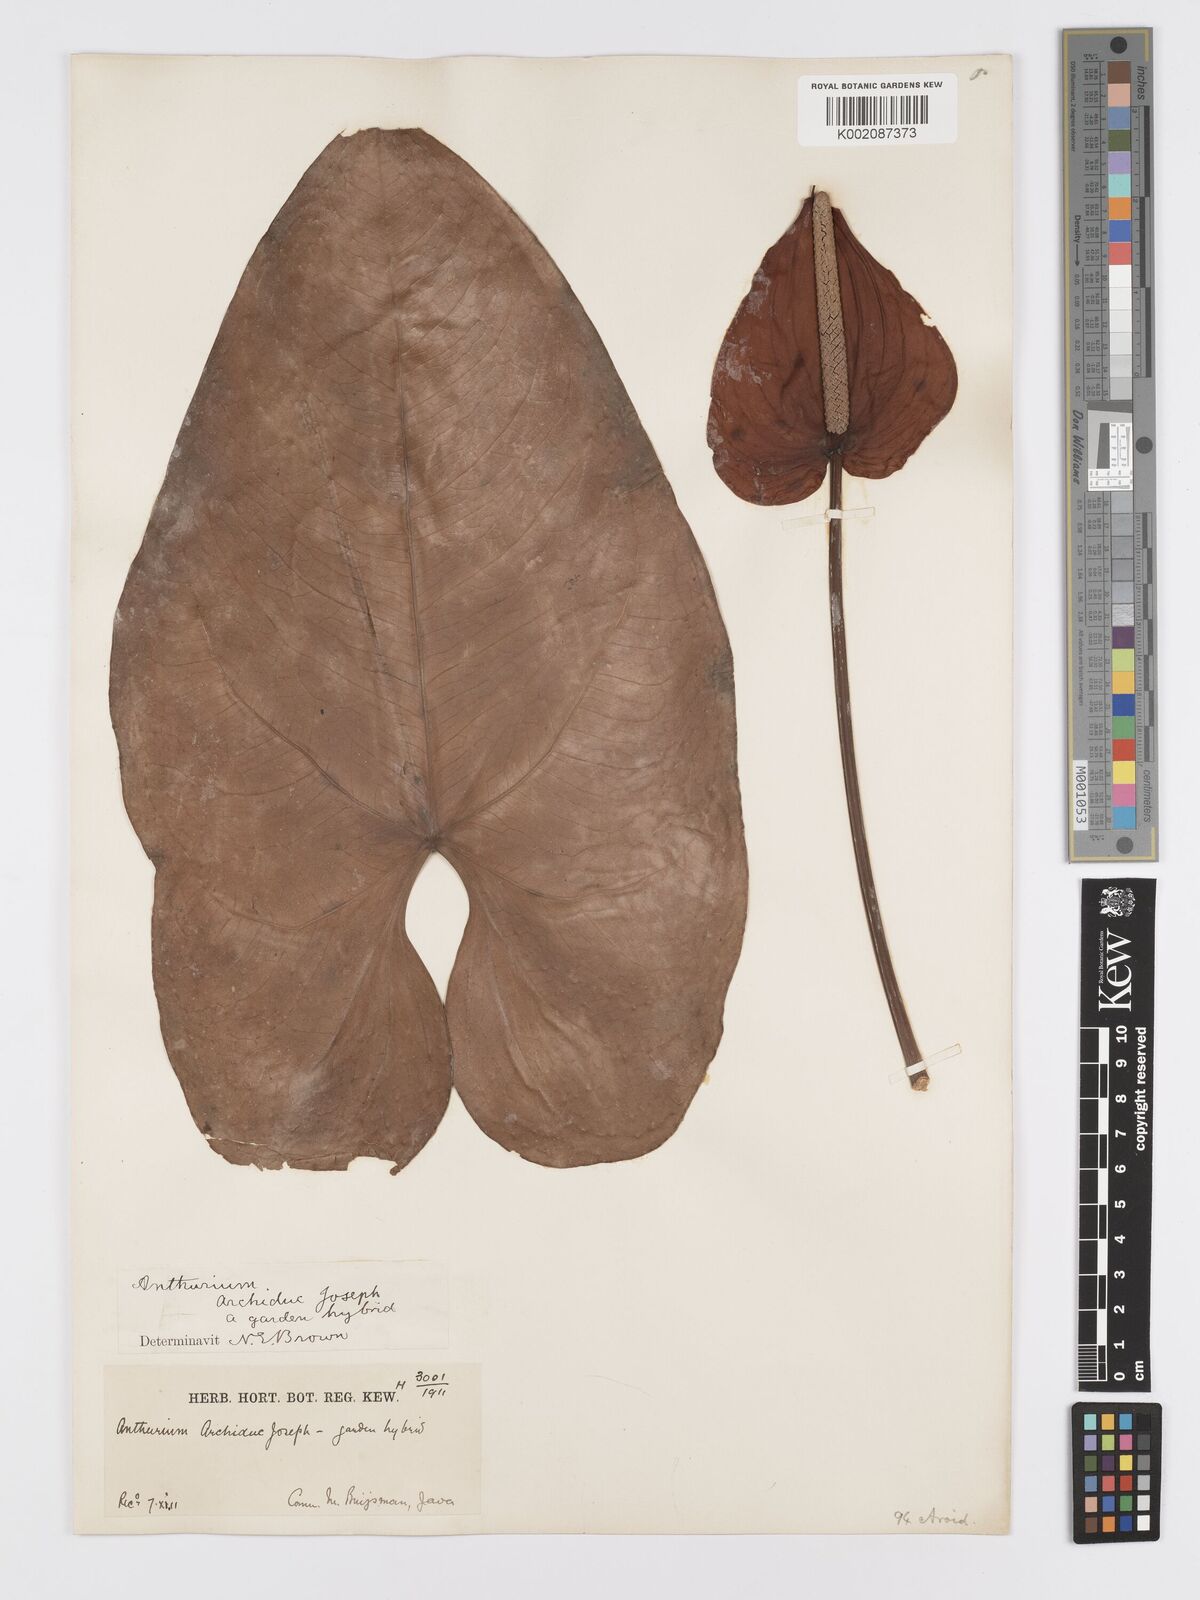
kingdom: Plantae
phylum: Tracheophyta
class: Liliopsida
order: Alismatales
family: Araceae
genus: Anthurium
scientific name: Anthurium
